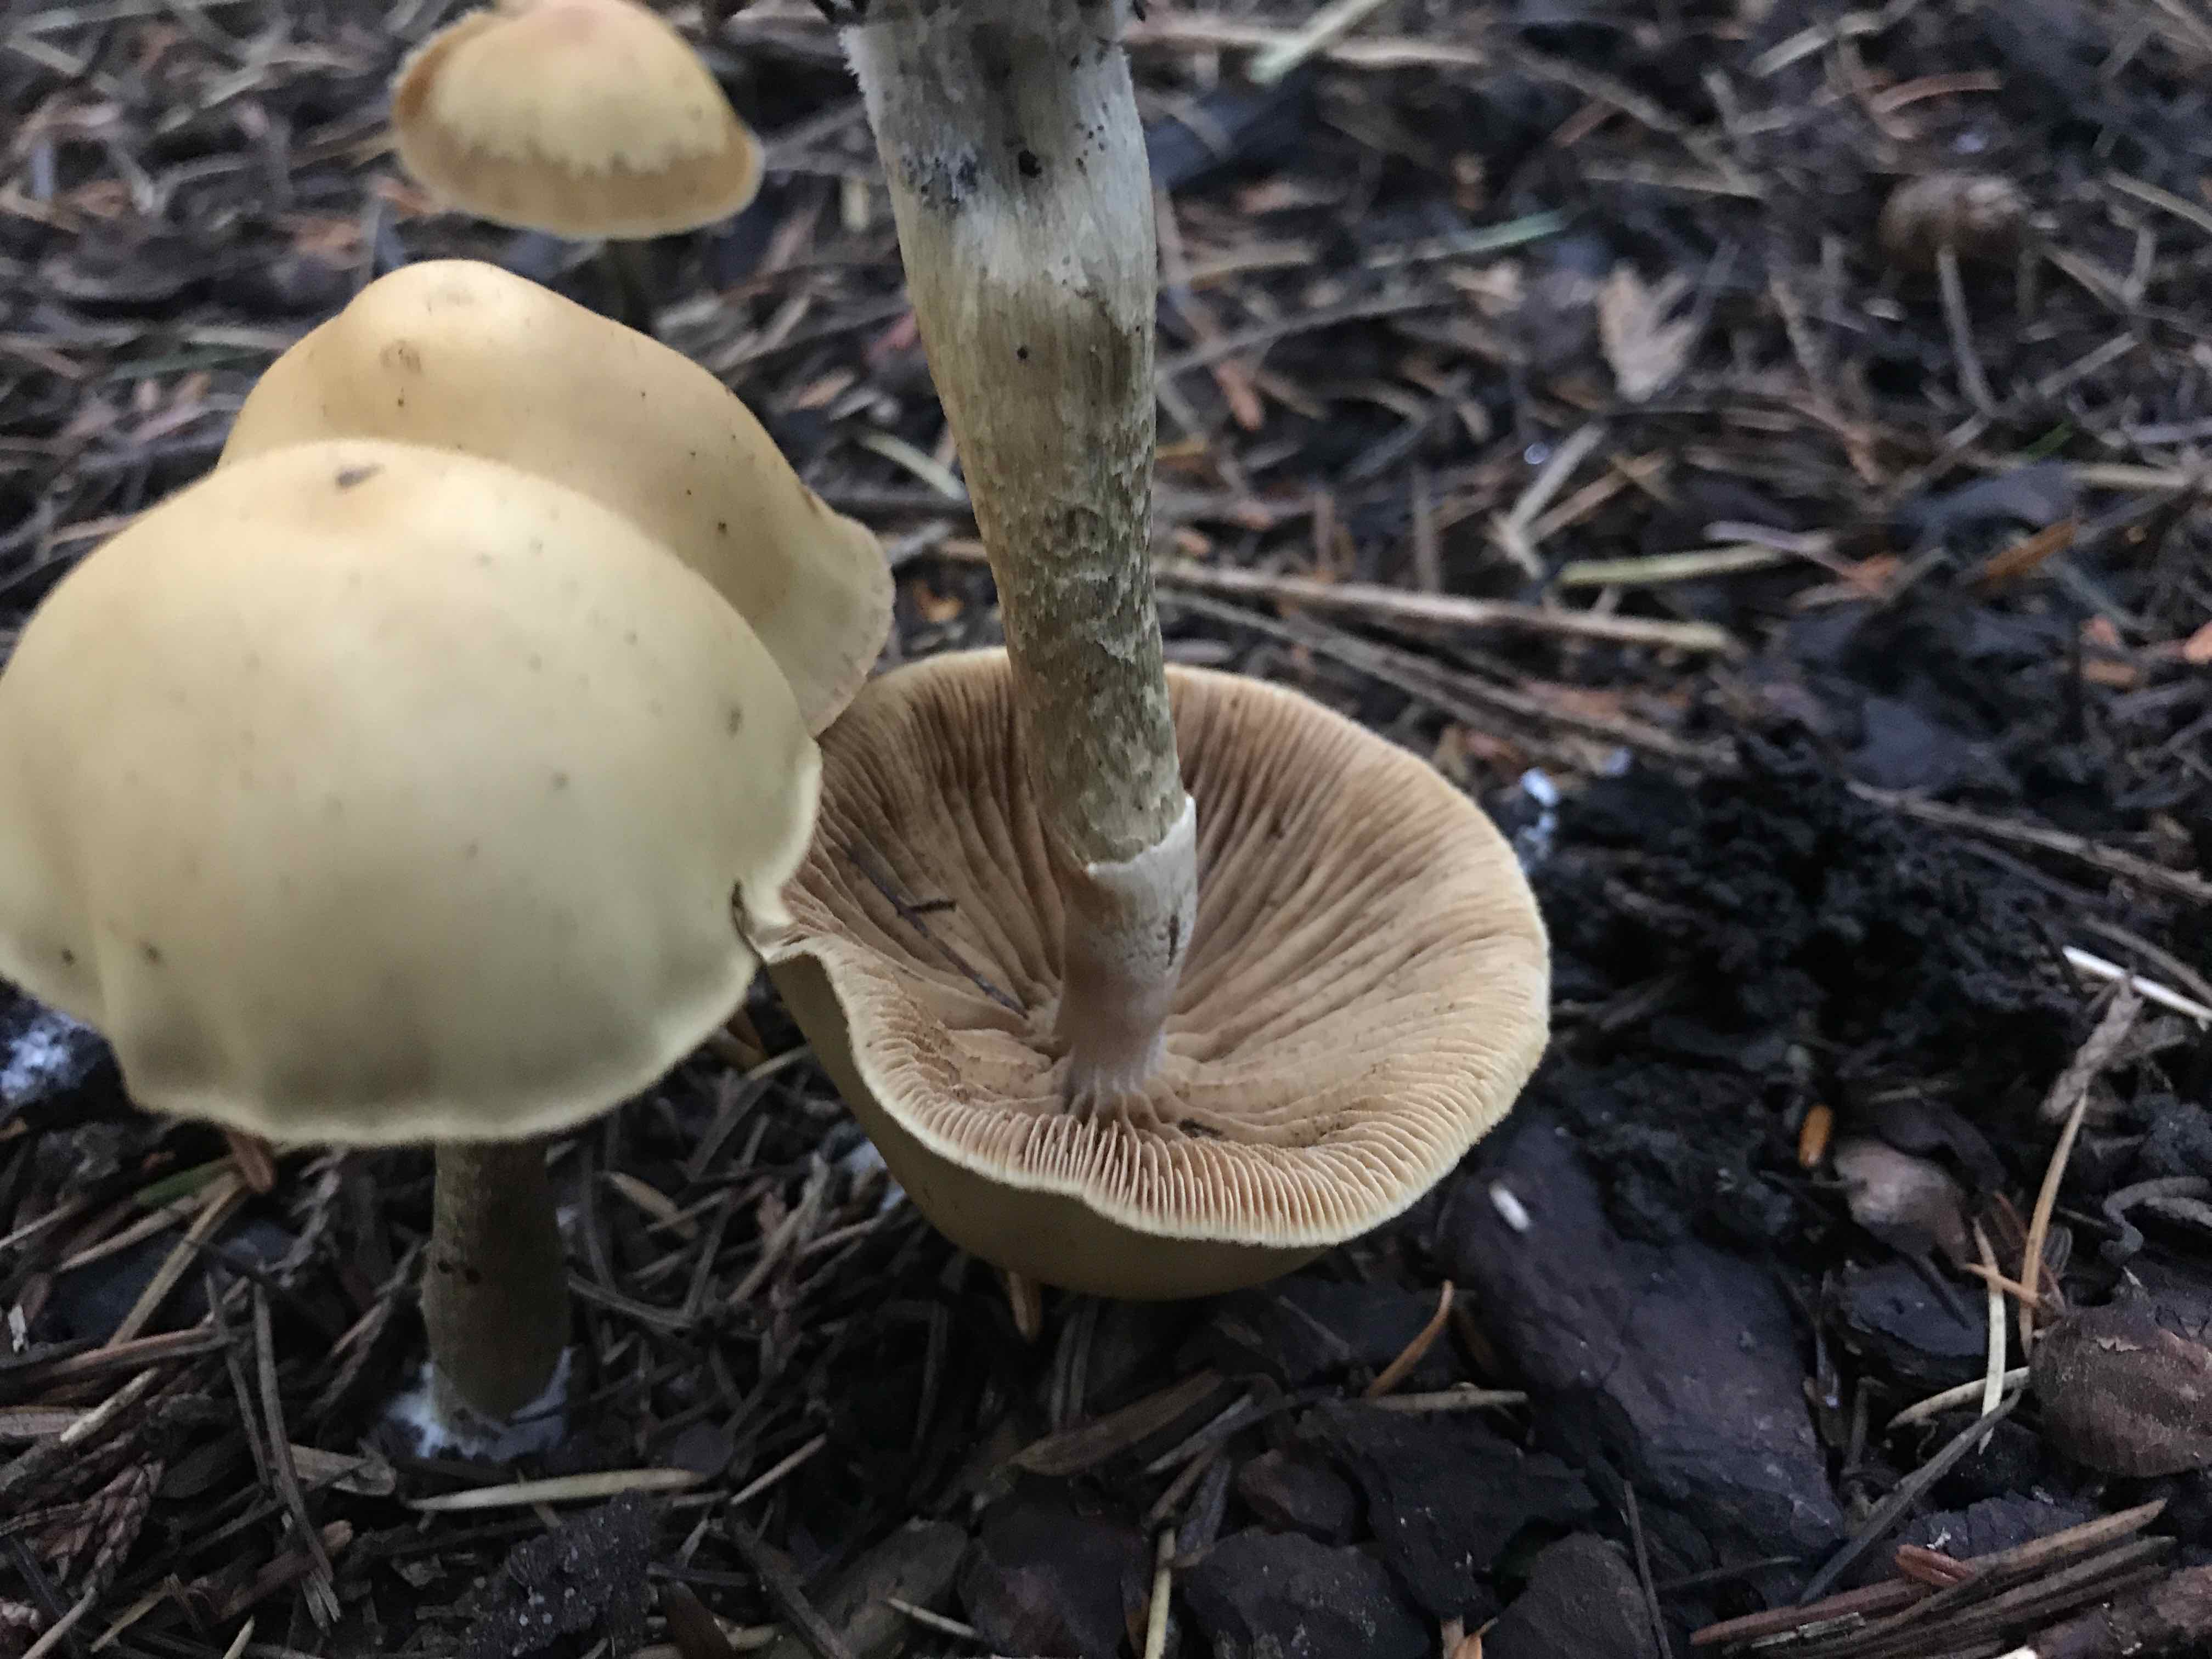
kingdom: Fungi
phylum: Basidiomycota
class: Agaricomycetes
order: Agaricales
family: Hymenogastraceae
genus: Galerina
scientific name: Galerina marginata
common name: randbæltet hjelmhat
